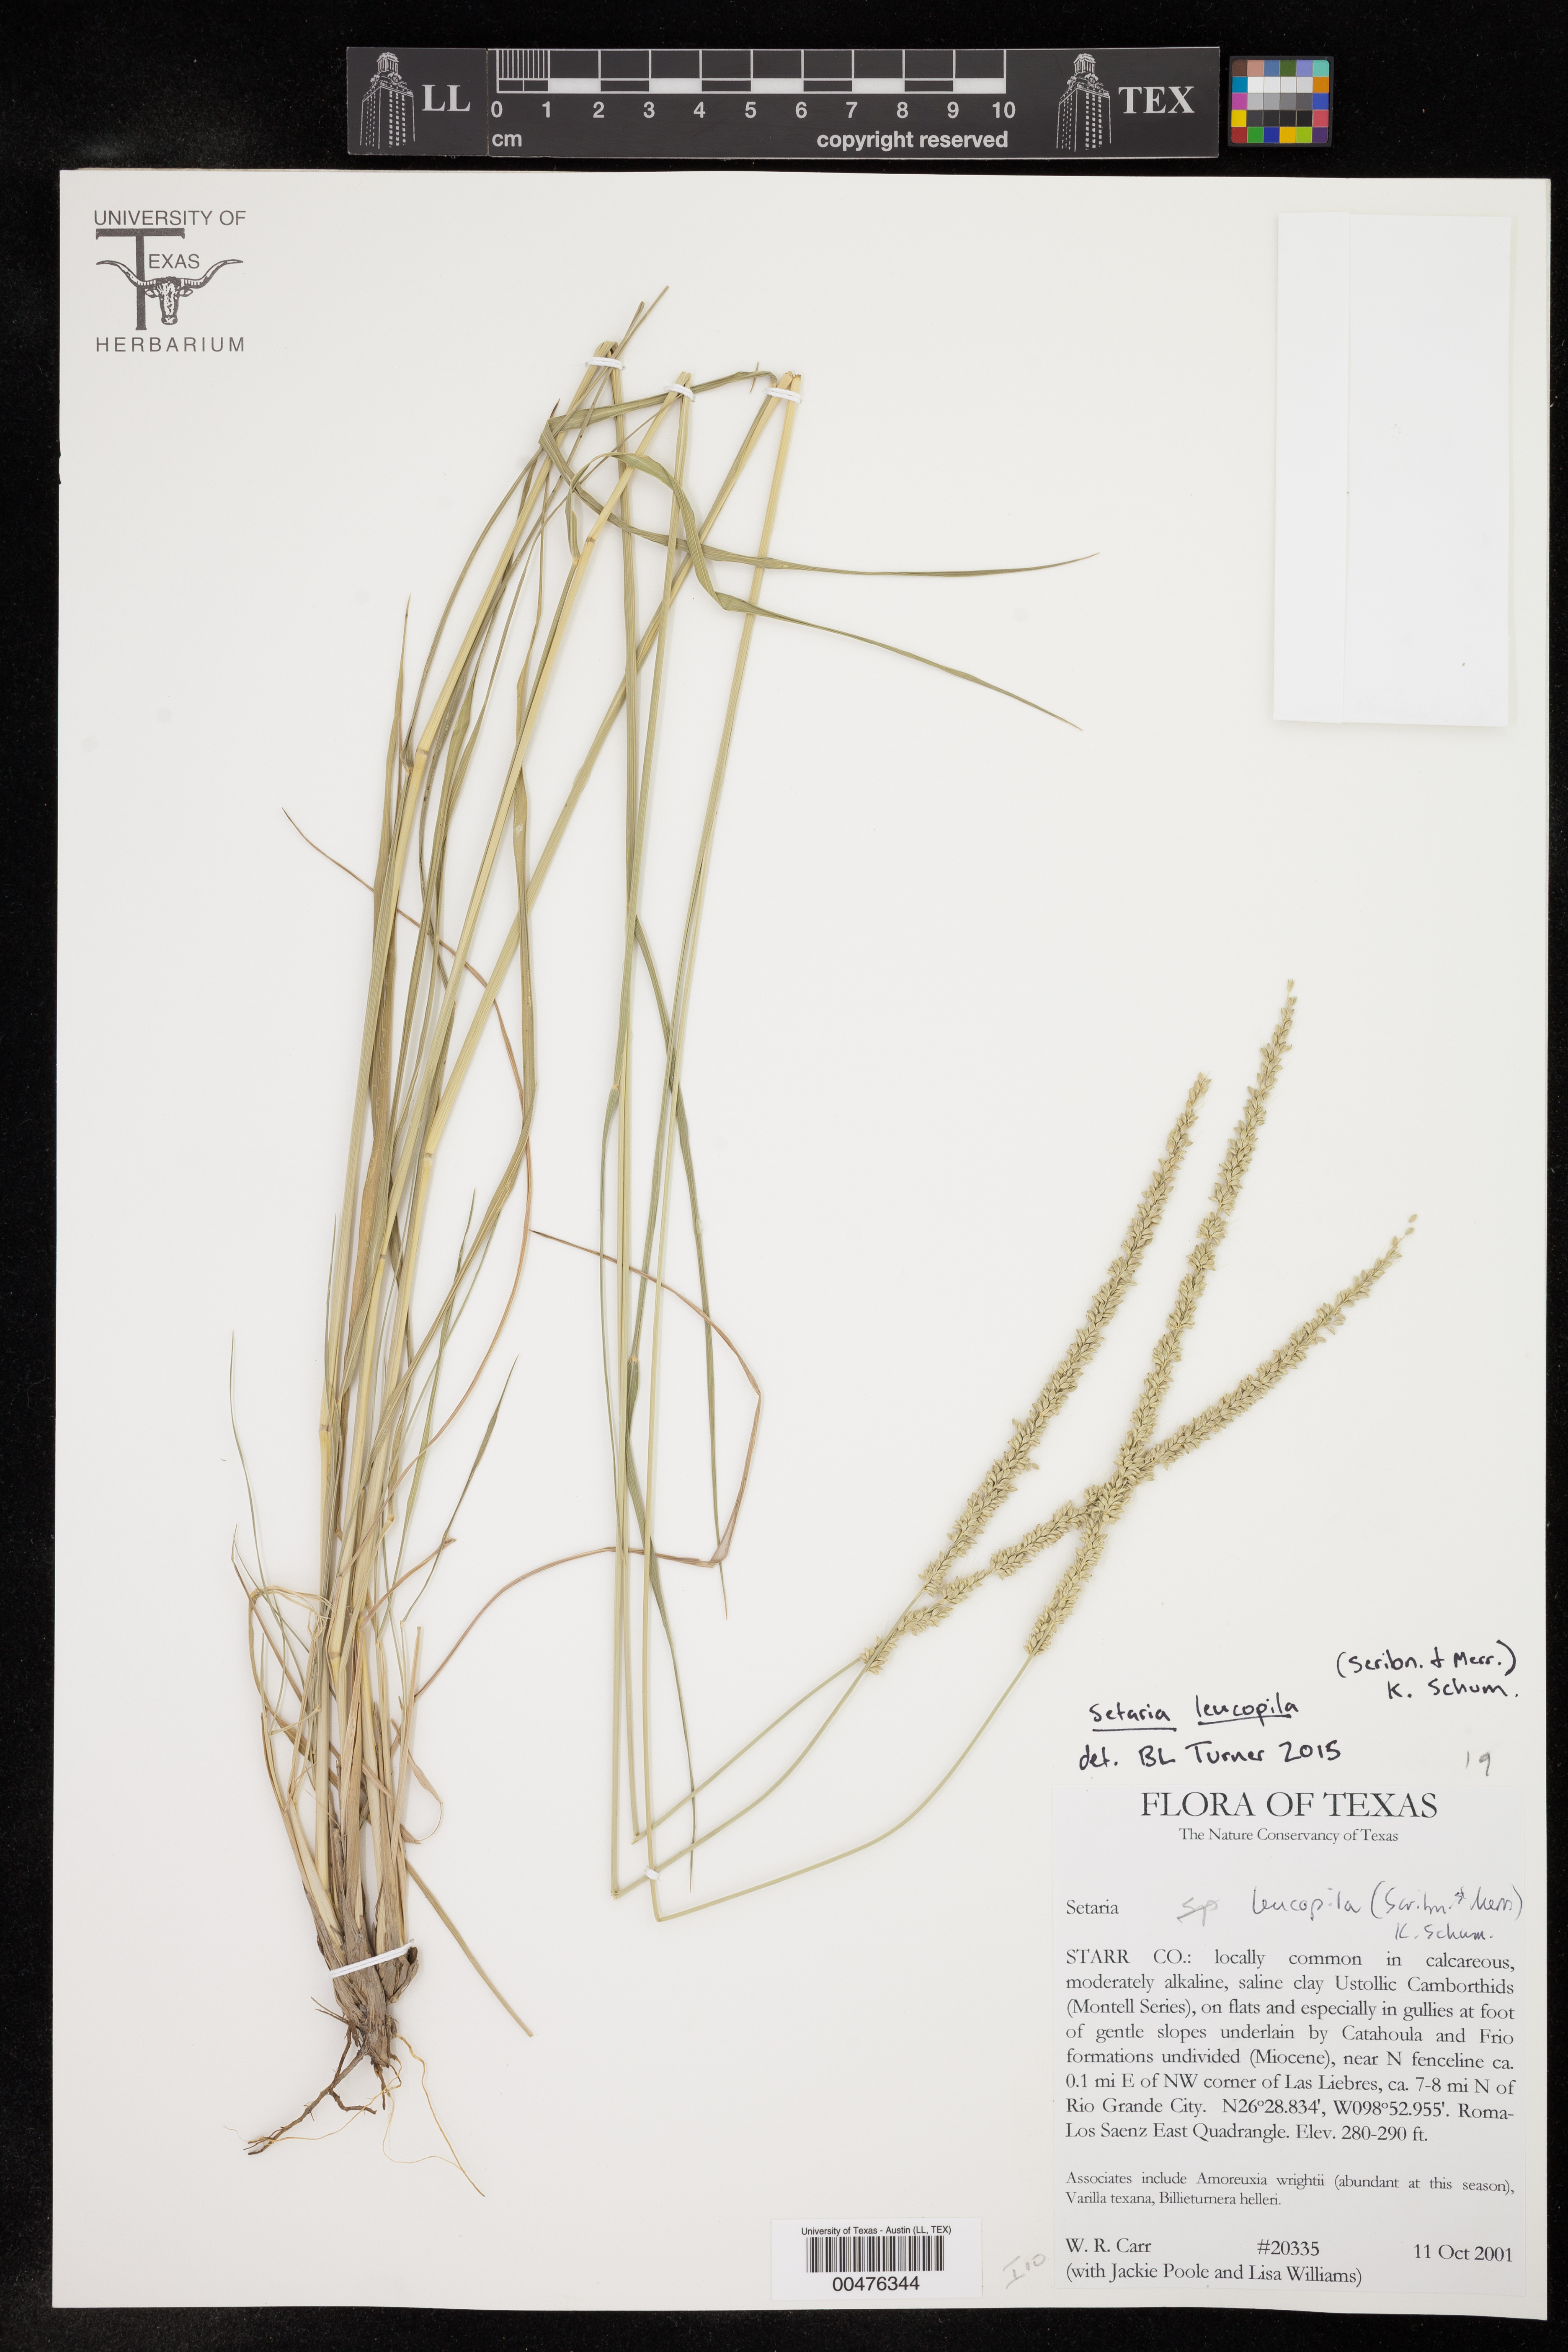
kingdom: Plantae
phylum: Tracheophyta
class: Liliopsida
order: Poales
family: Poaceae
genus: Setaria
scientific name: Setaria leucopila
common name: Plains bristle grass
